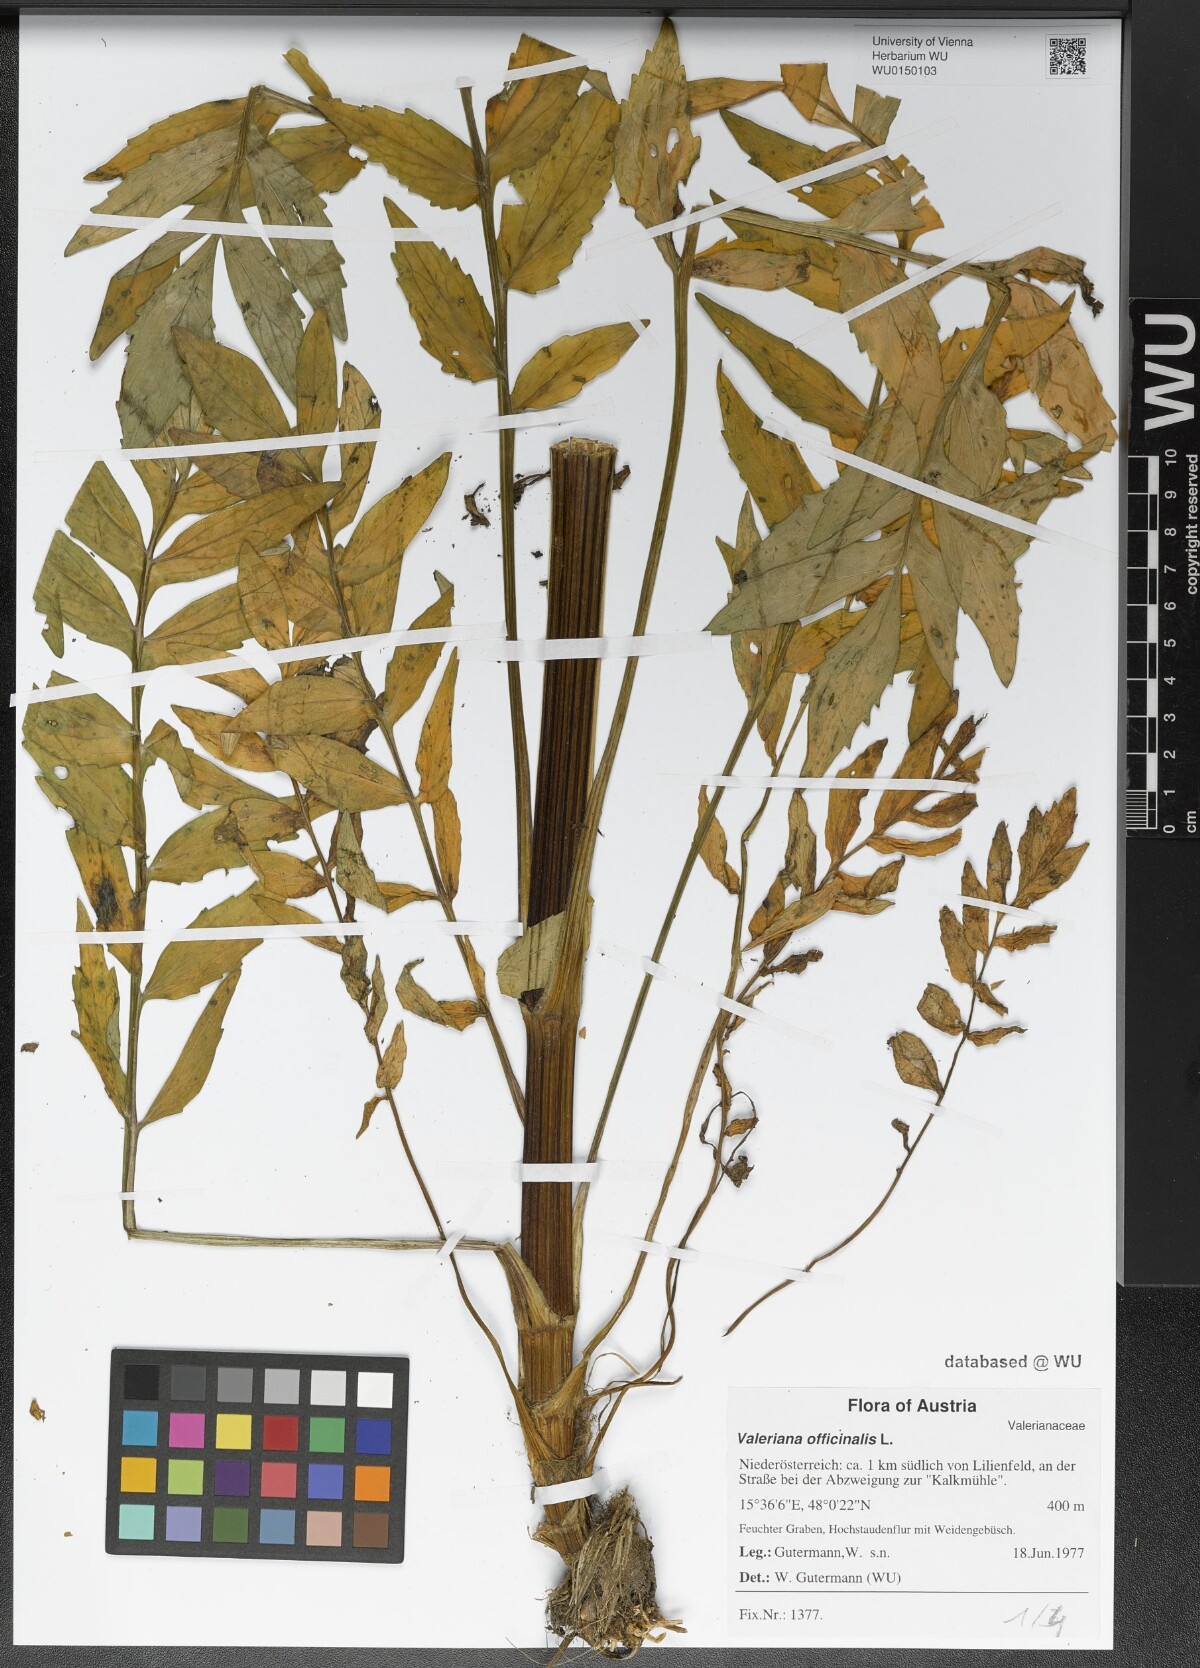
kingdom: Plantae
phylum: Tracheophyta
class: Magnoliopsida
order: Dipsacales
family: Caprifoliaceae
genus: Valeriana
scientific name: Valeriana officinalis
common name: Common valerian
